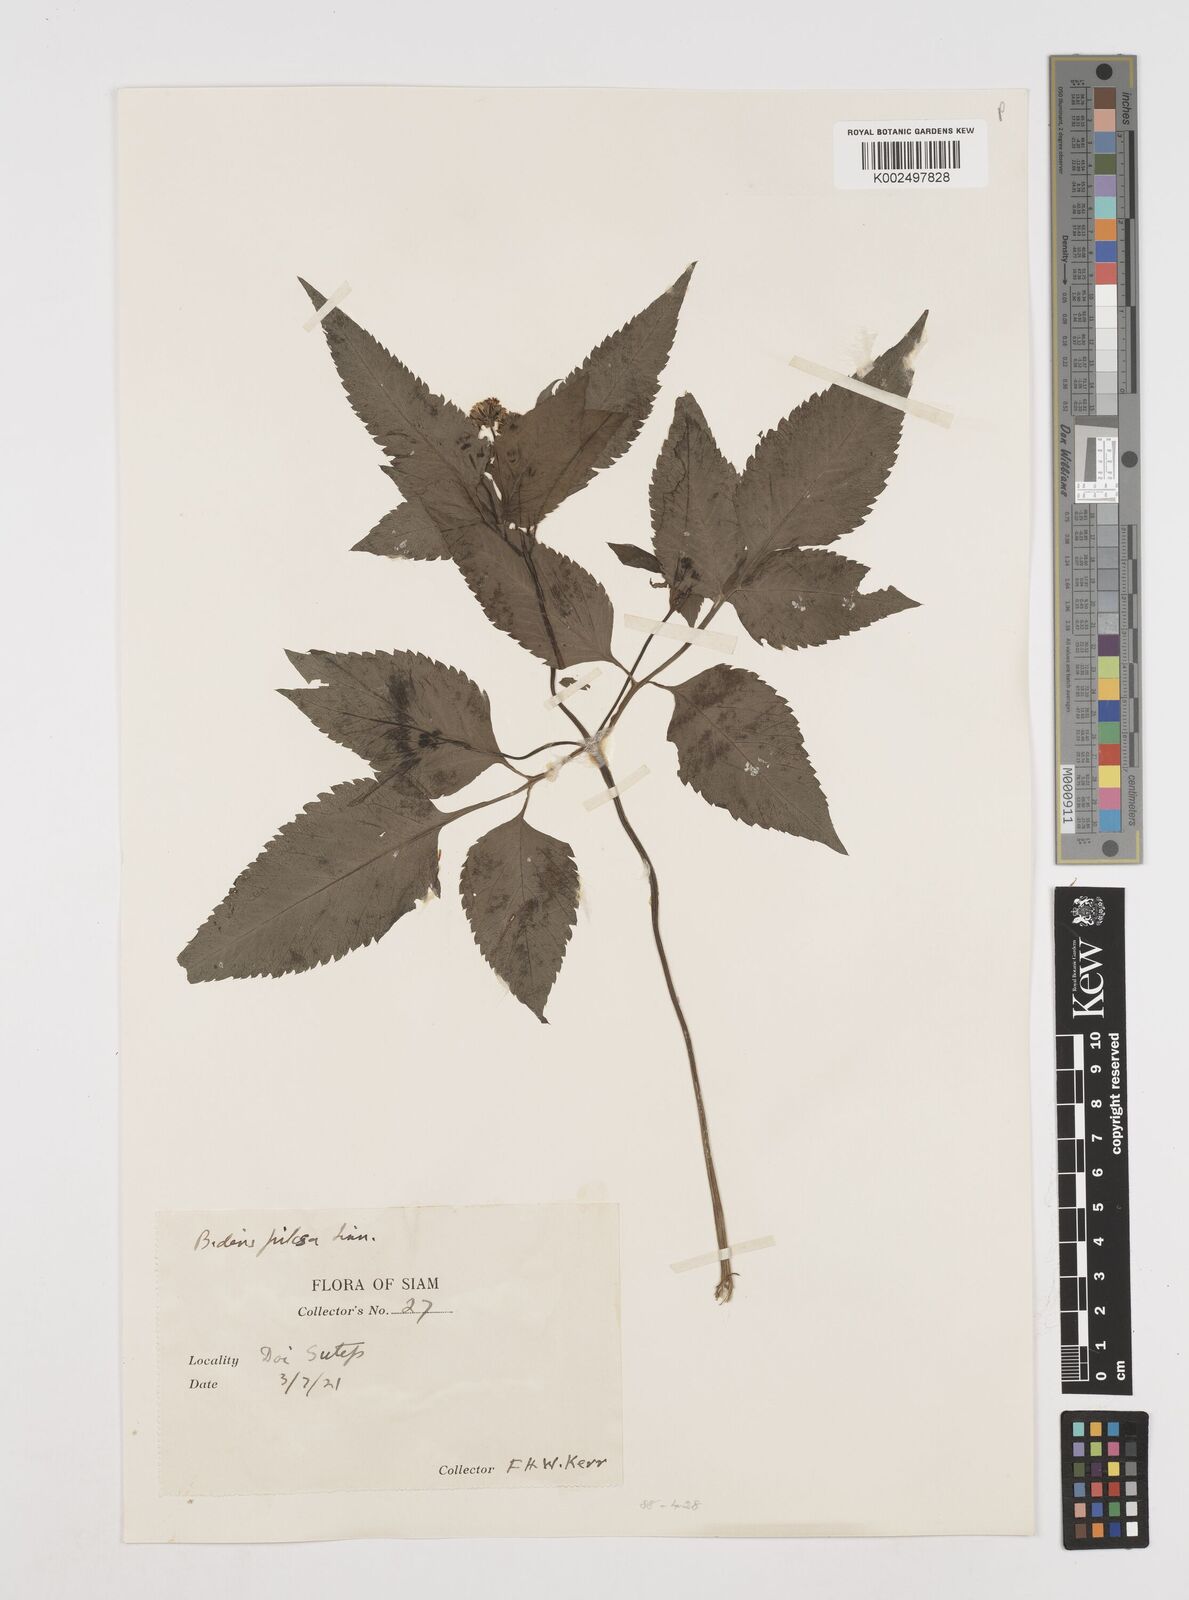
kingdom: Plantae
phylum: Tracheophyta
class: Magnoliopsida
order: Asterales
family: Asteraceae
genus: Bidens
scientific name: Bidens pilosa
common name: Black-jack
